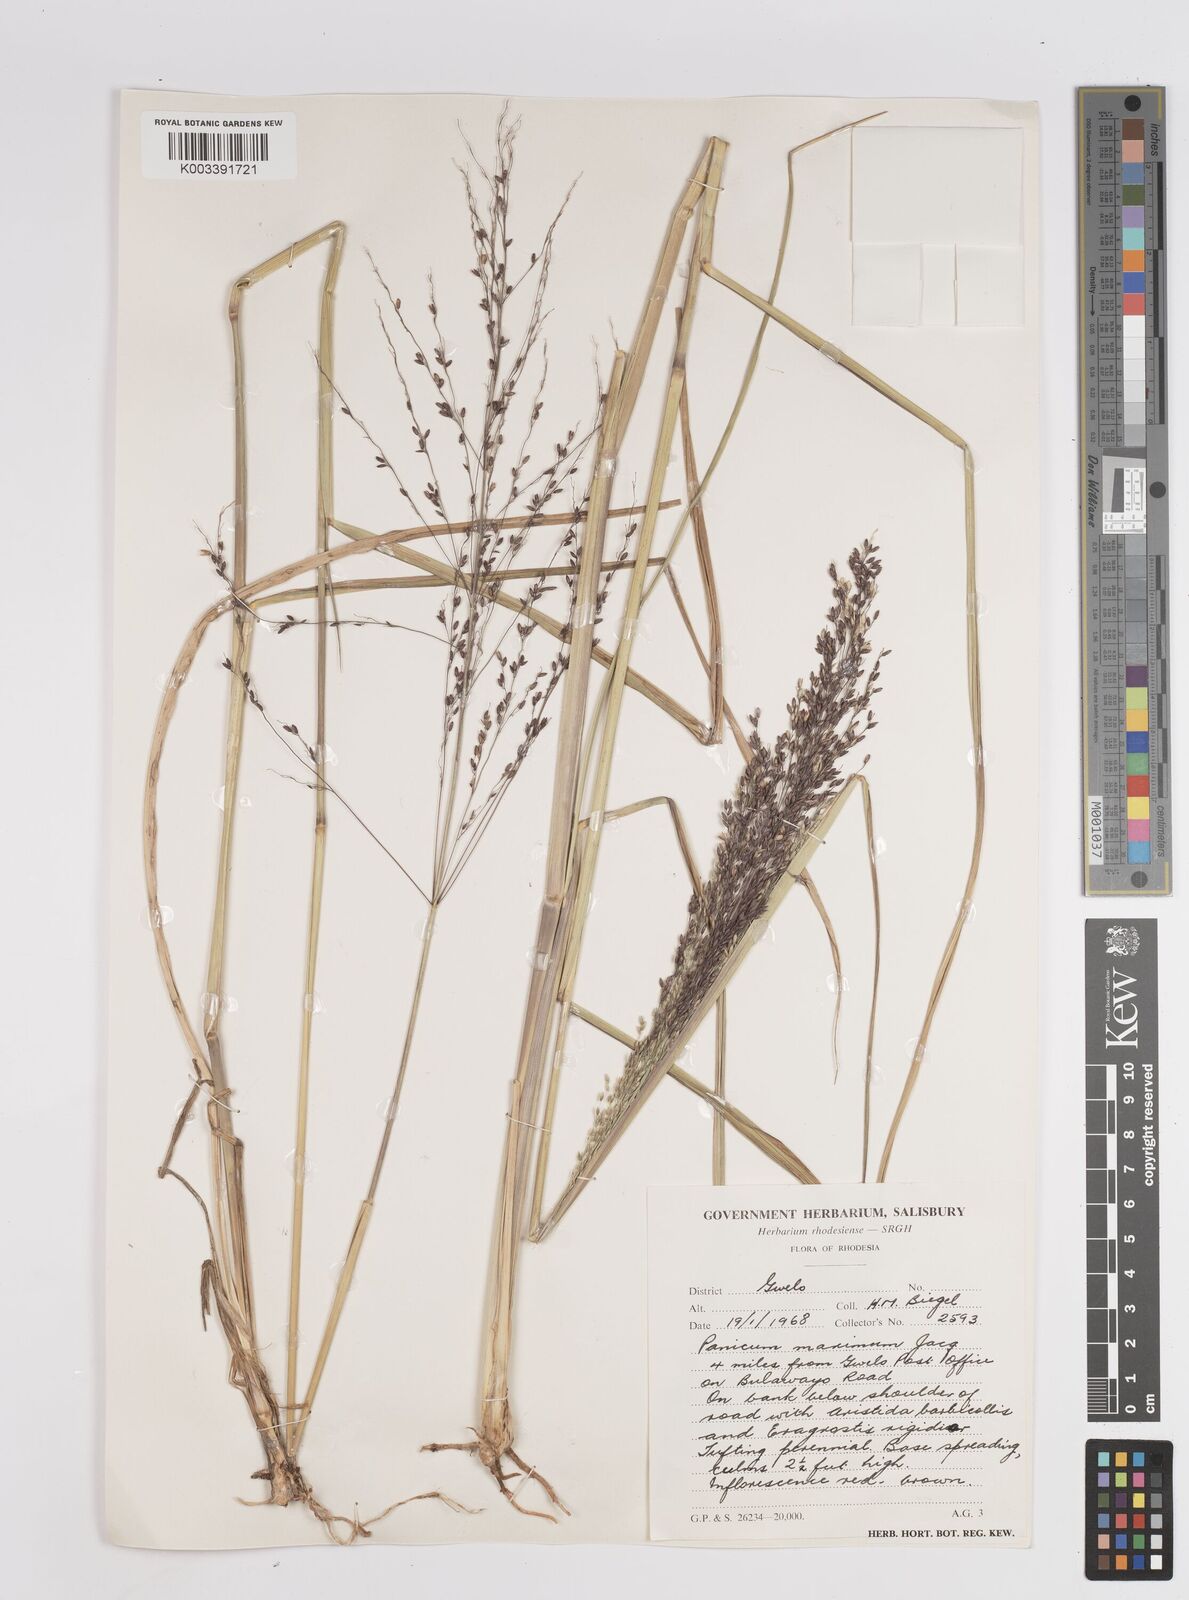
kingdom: Plantae
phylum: Tracheophyta
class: Liliopsida
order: Poales
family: Poaceae
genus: Megathyrsus
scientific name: Megathyrsus maximus
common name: Guineagrass
